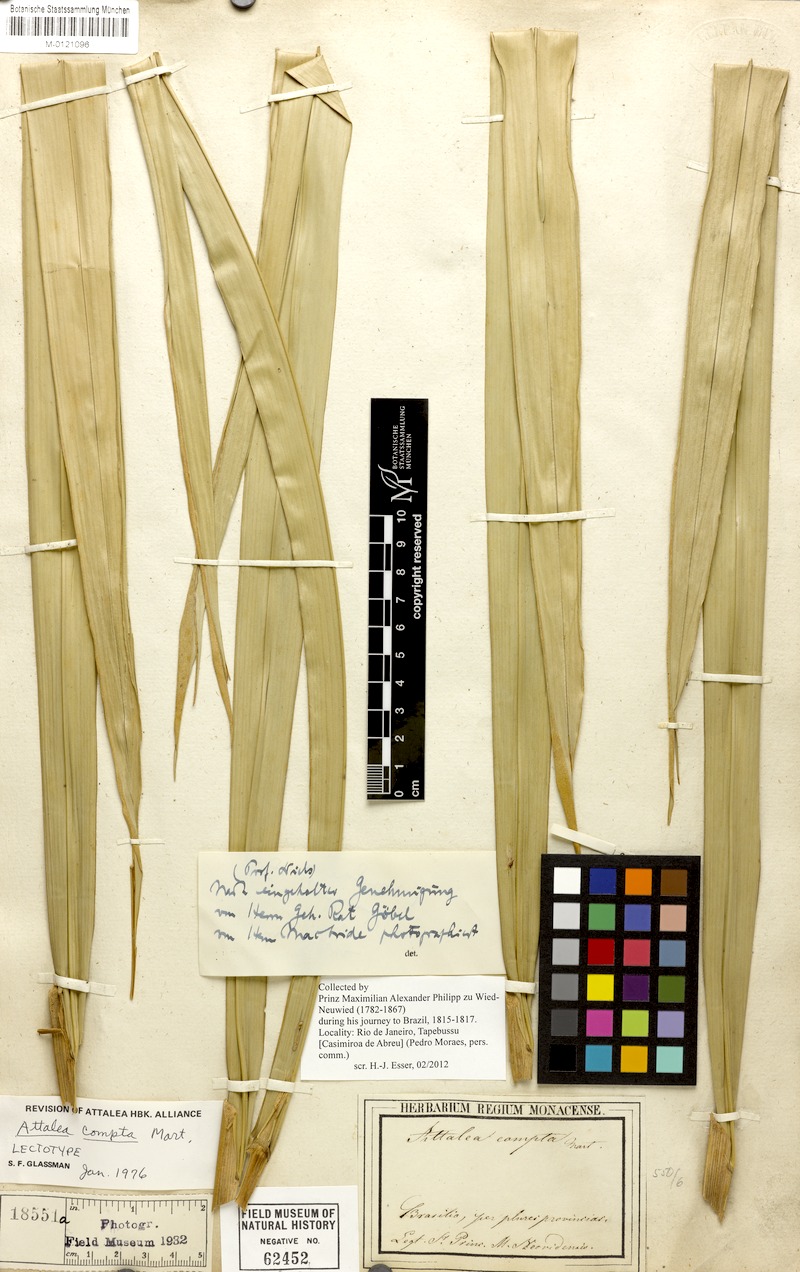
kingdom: Plantae
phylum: Tracheophyta
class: Liliopsida
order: Arecales
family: Arecaceae
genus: Attalea
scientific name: Attalea compta
